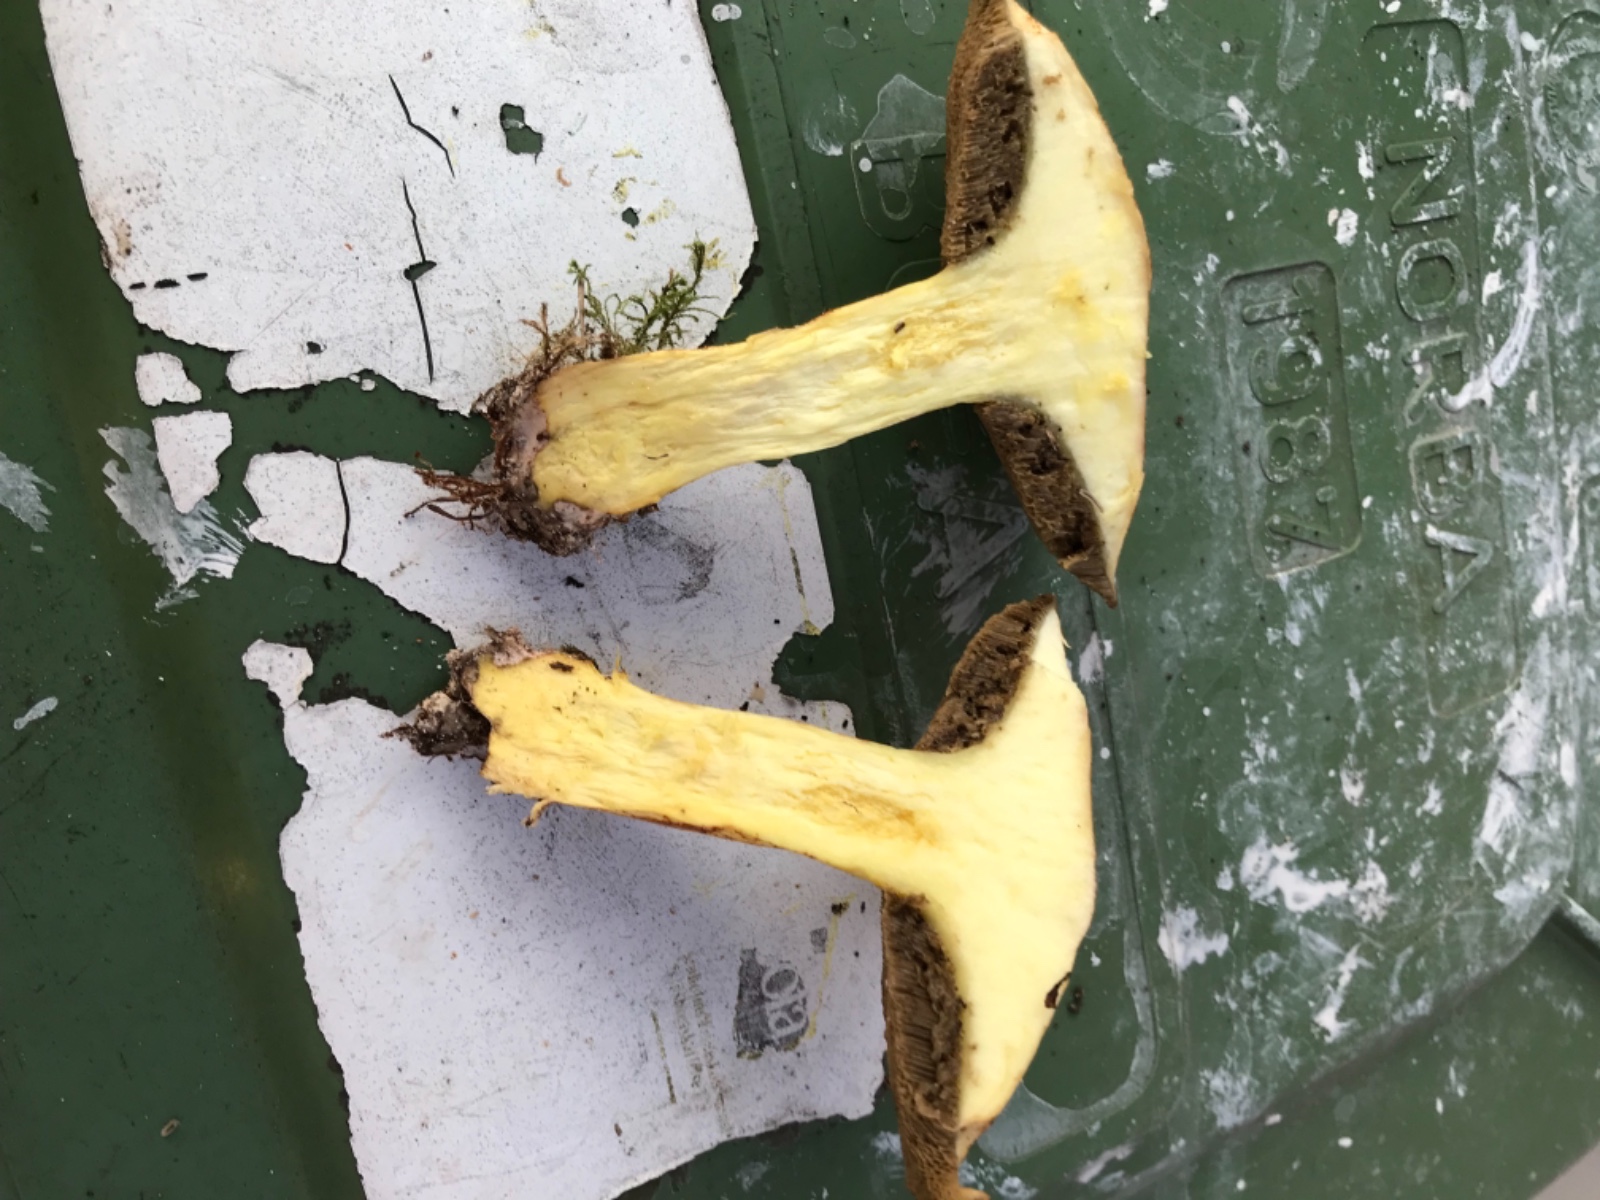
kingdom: Fungi
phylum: Basidiomycota
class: Agaricomycetes
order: Boletales
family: Suillaceae
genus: Suillus
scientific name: Suillus bovinus
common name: grovporet slimrørhat
